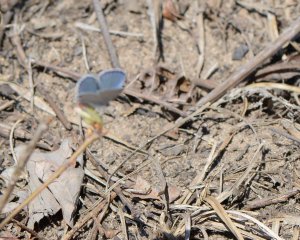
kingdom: Animalia
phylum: Arthropoda
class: Insecta
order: Lepidoptera
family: Lycaenidae
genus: Elkalyce
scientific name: Elkalyce comyntas
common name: Eastern Tailed-Blue
